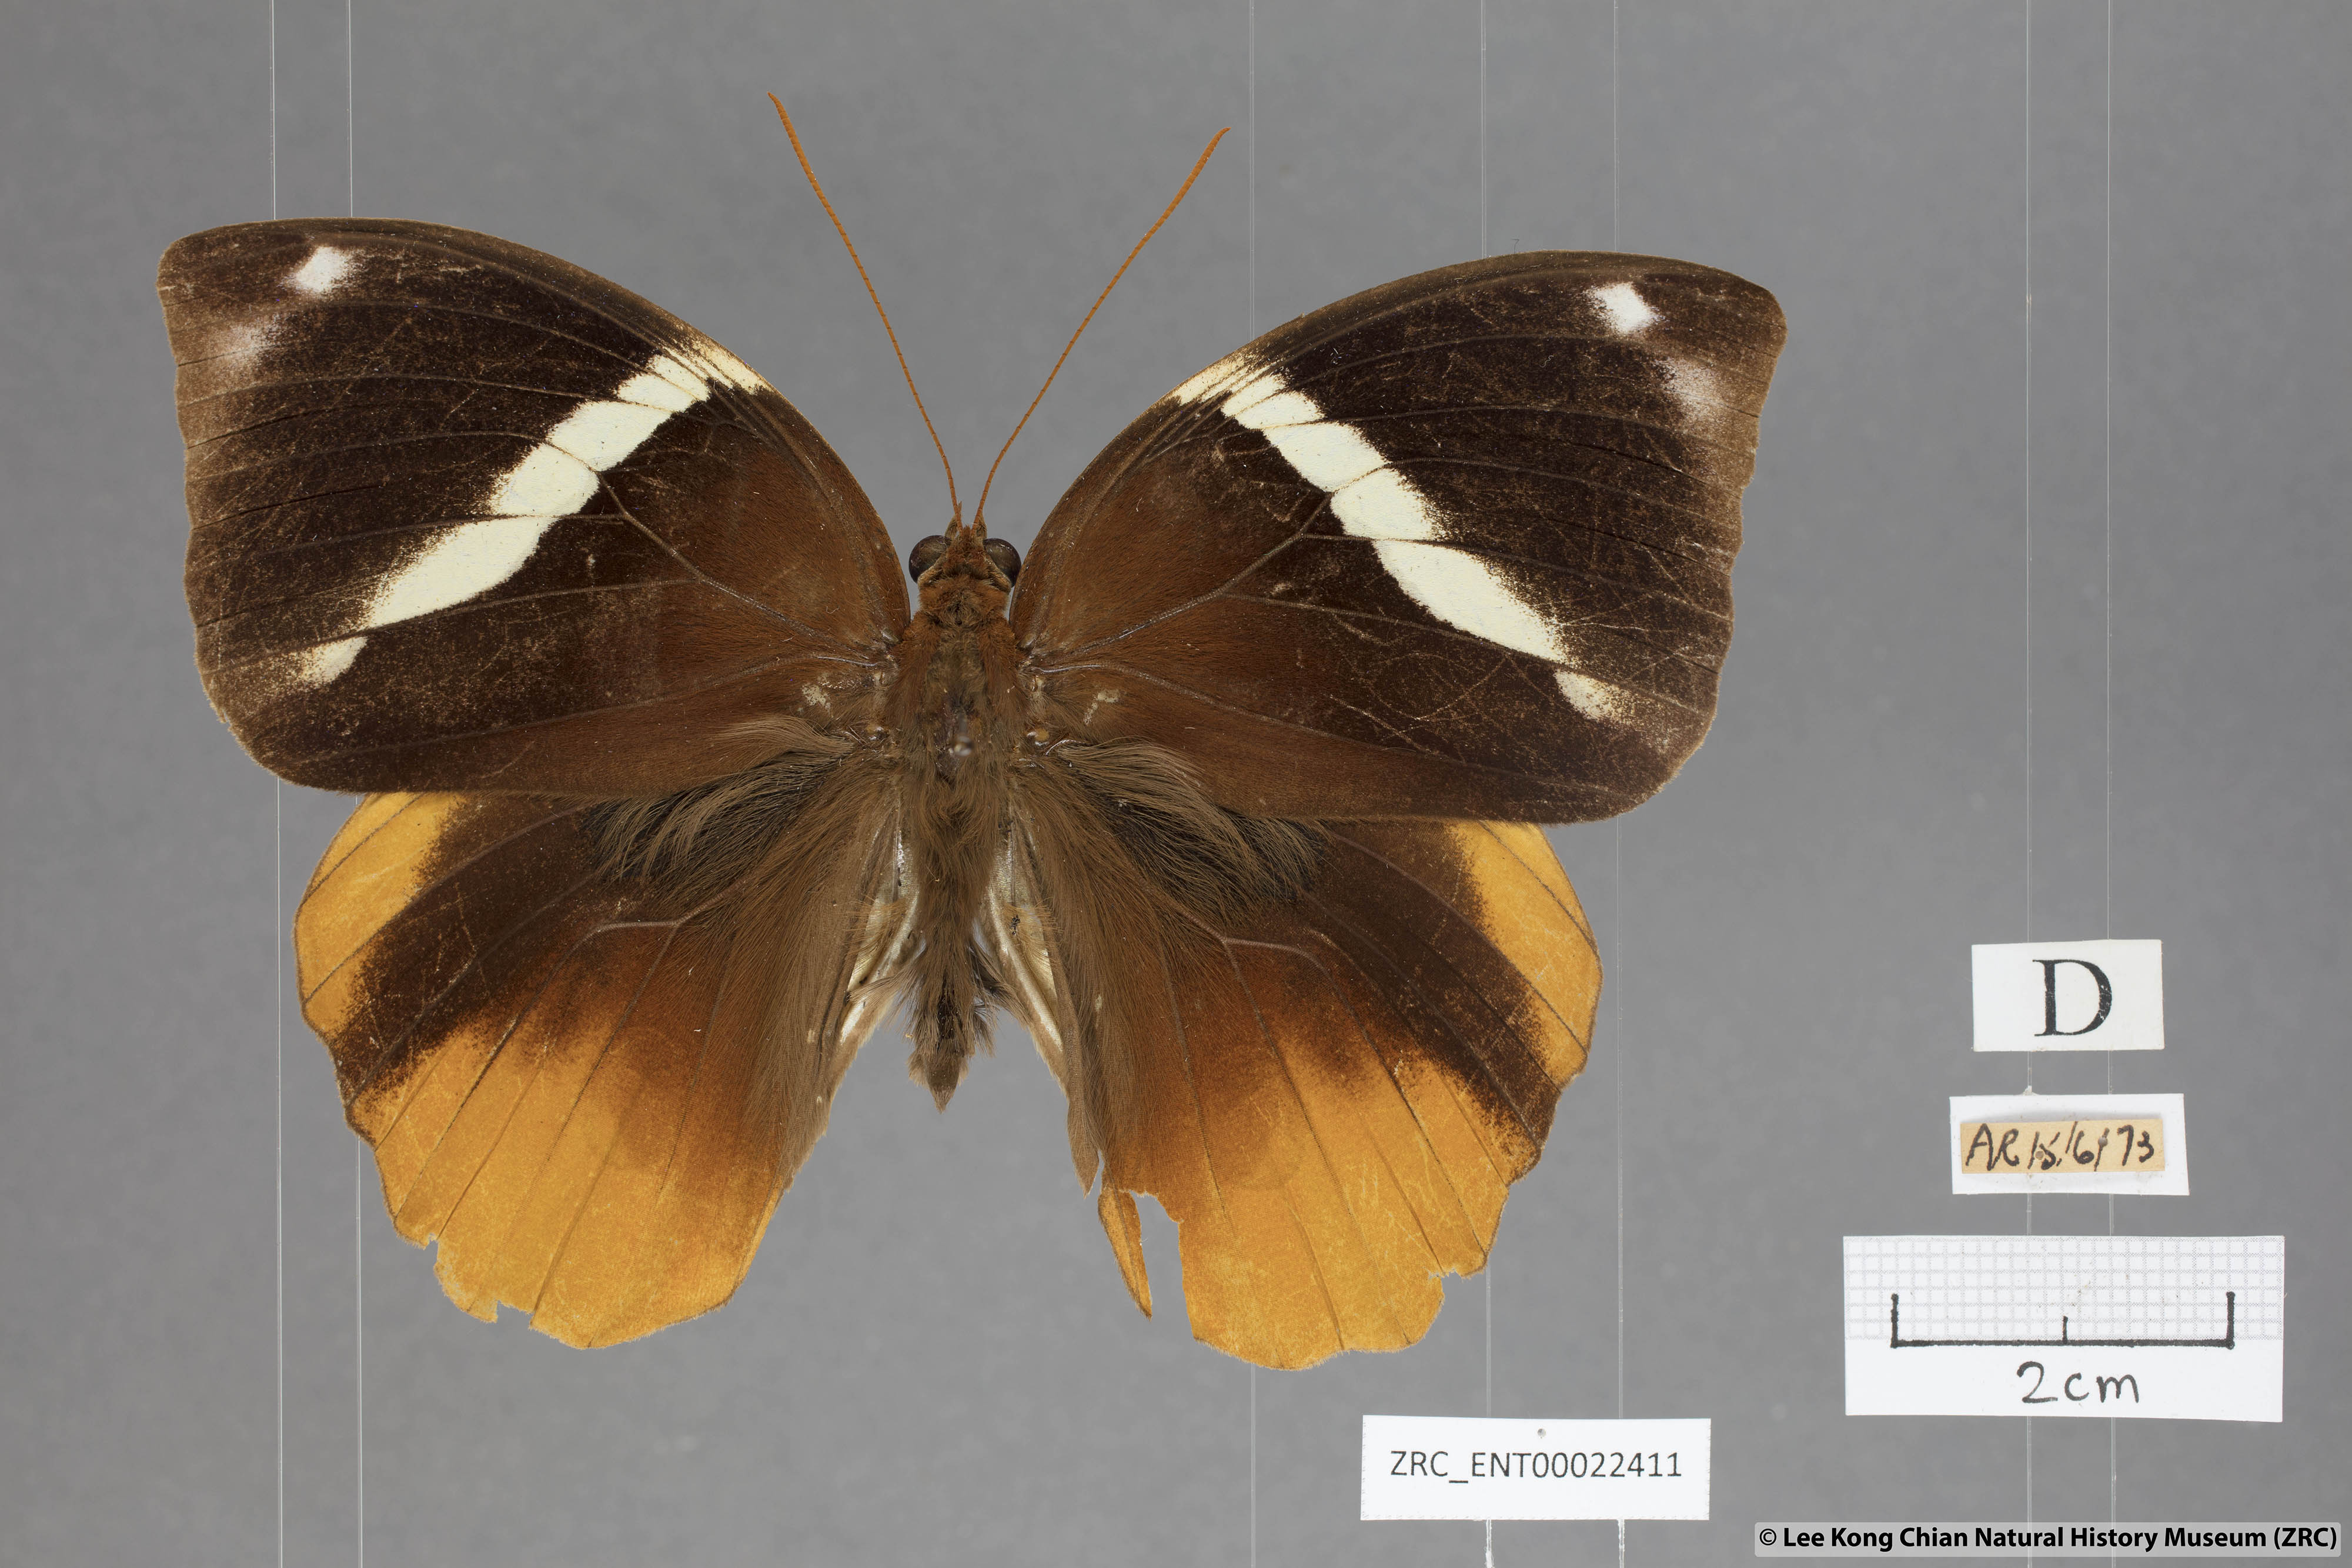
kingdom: Animalia
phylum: Arthropoda
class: Insecta
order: Lepidoptera
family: Nymphalidae
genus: Thauria
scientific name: Thauria aliris
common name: Tufted jungle king
